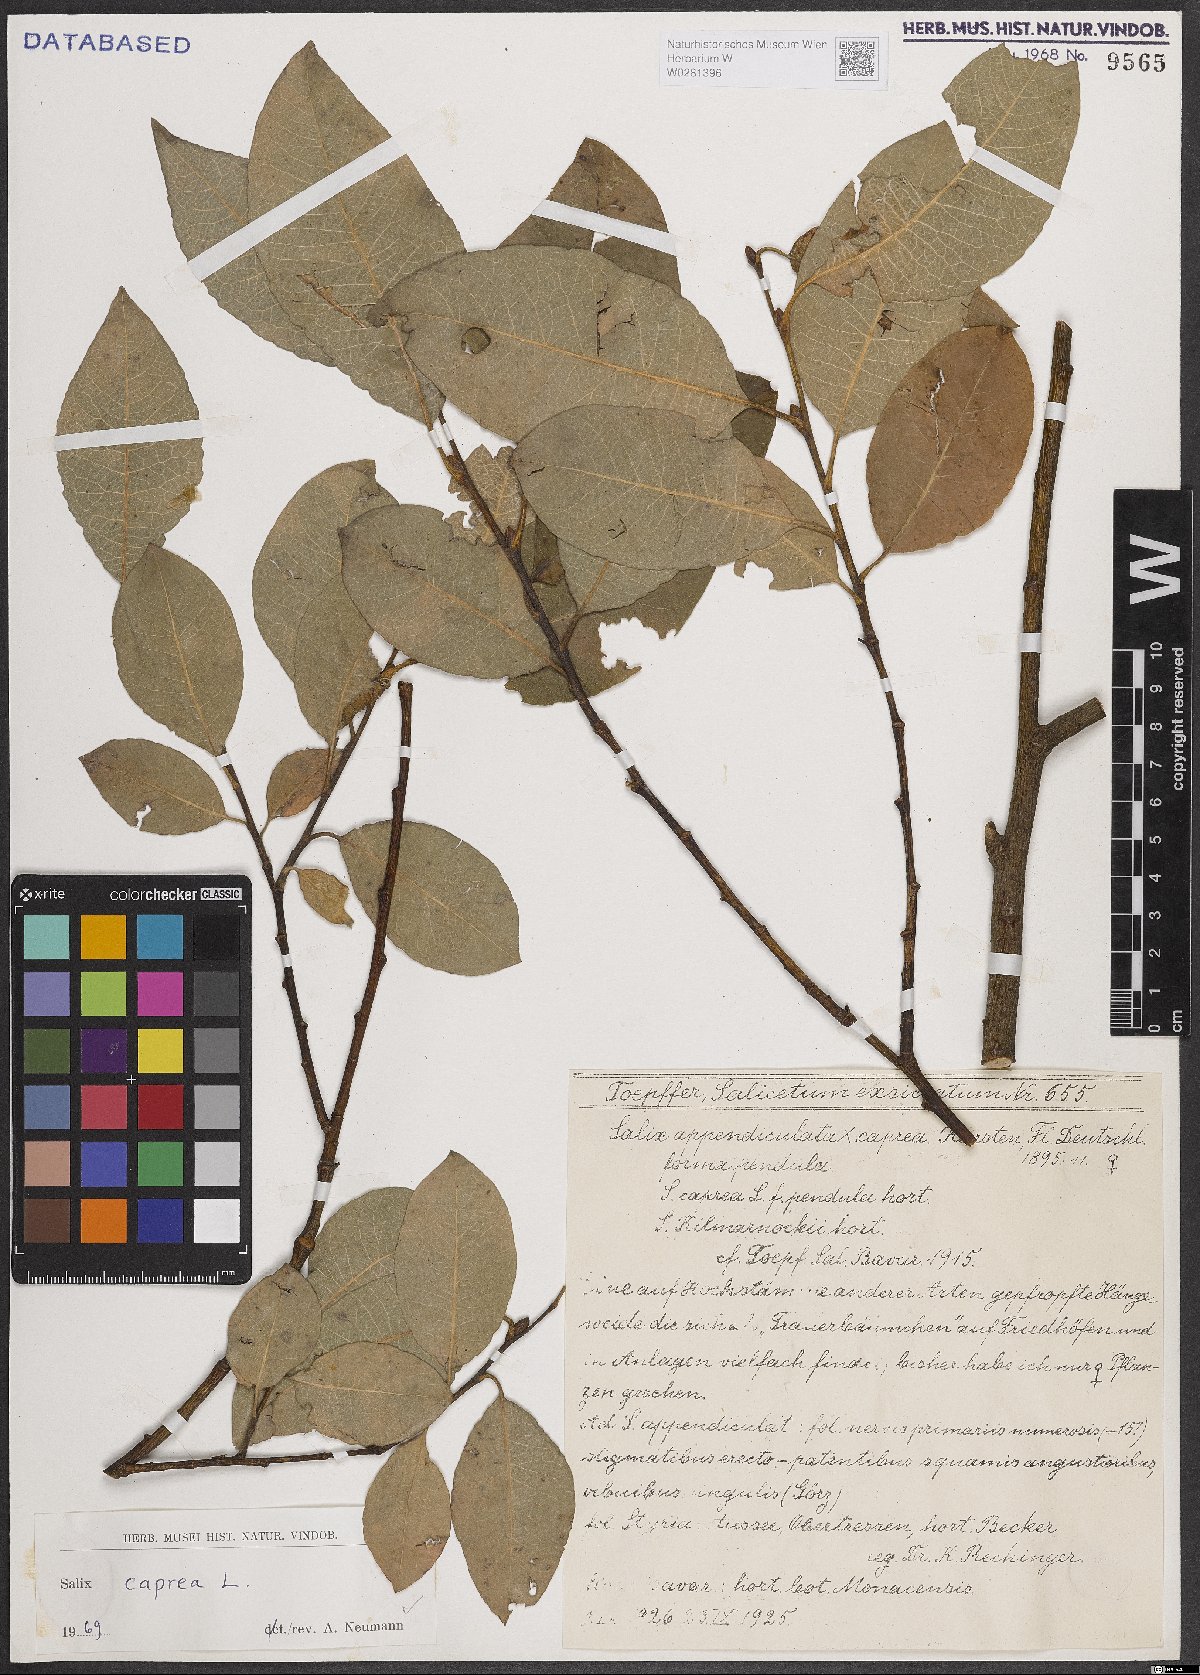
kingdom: Plantae
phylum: Tracheophyta
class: Magnoliopsida
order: Malpighiales
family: Salicaceae
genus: Salix
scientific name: Salix caprea
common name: Goat willow
